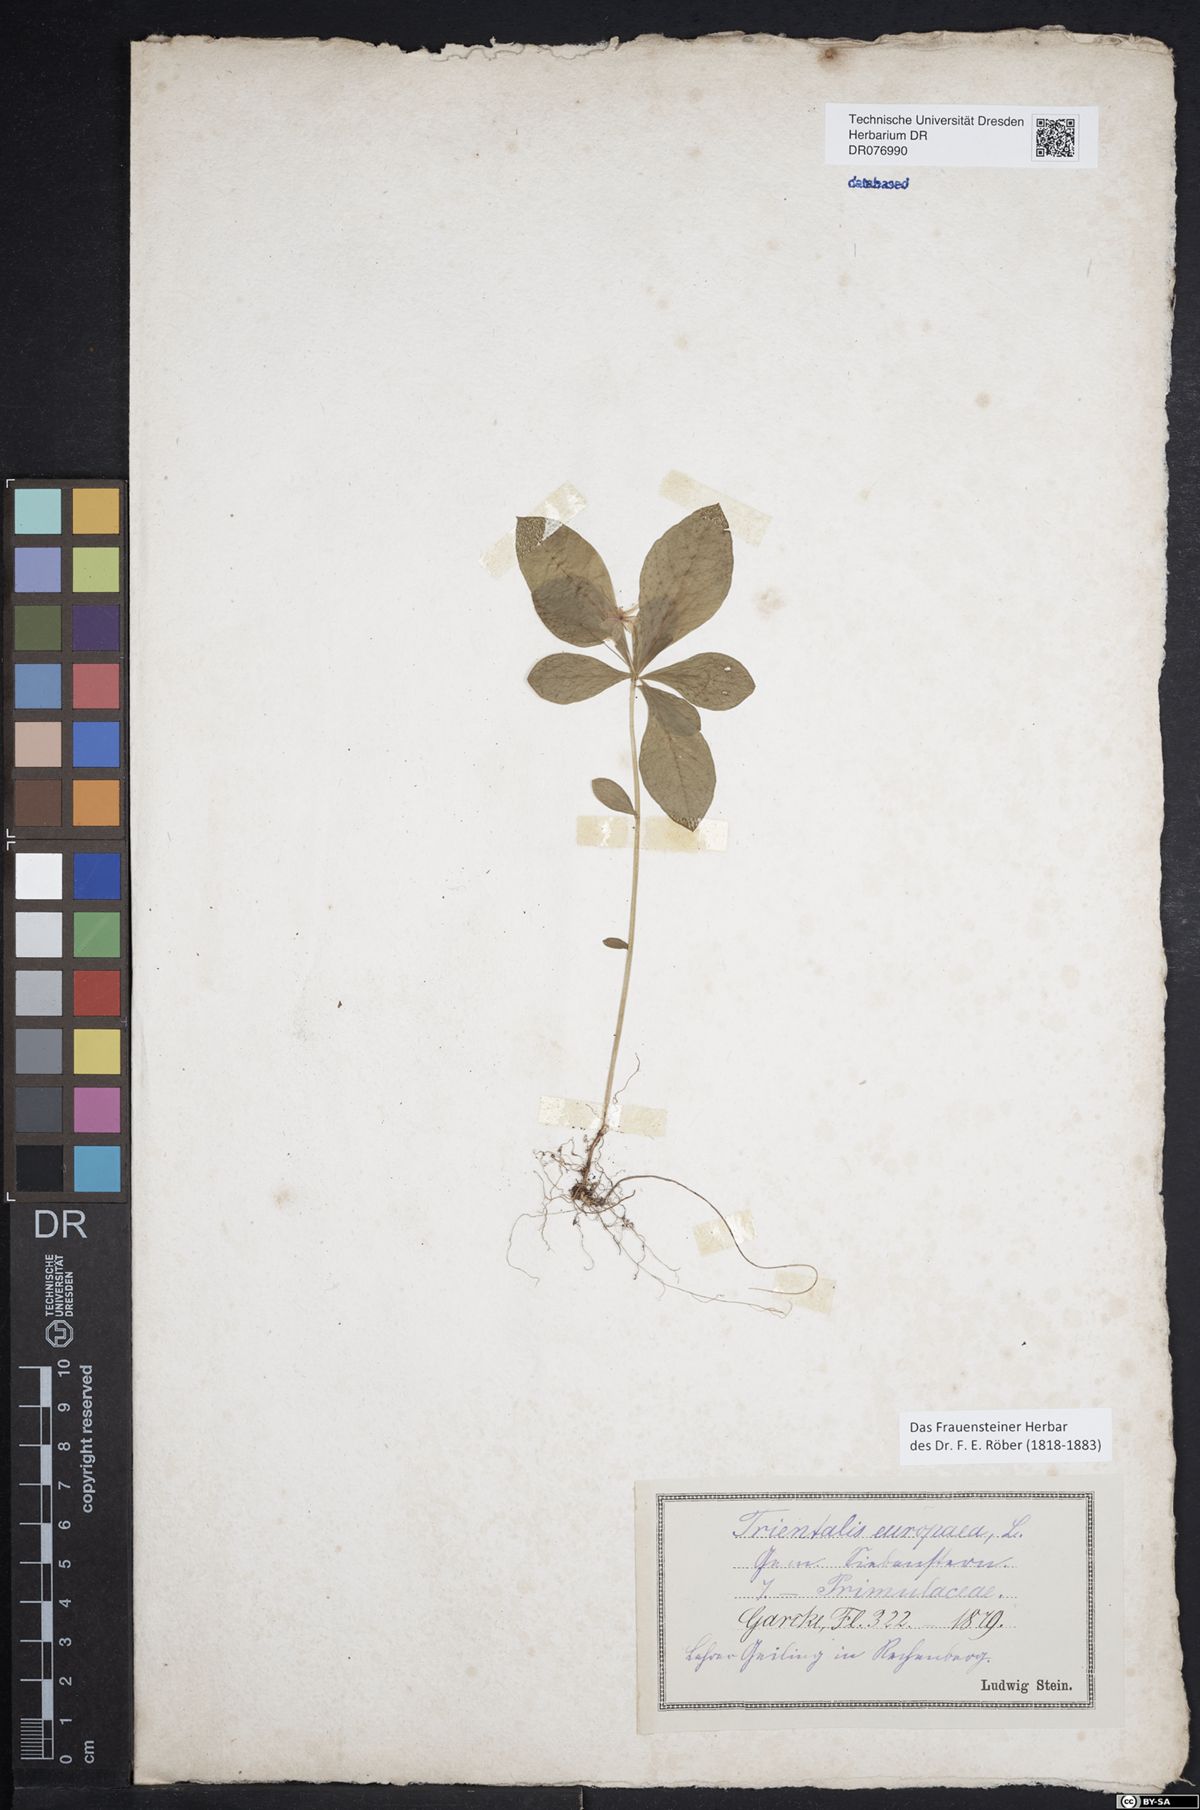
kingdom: Plantae
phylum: Tracheophyta
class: Magnoliopsida
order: Ericales
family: Primulaceae
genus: Lysimachia
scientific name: Lysimachia europaea
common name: Arctic starflower
